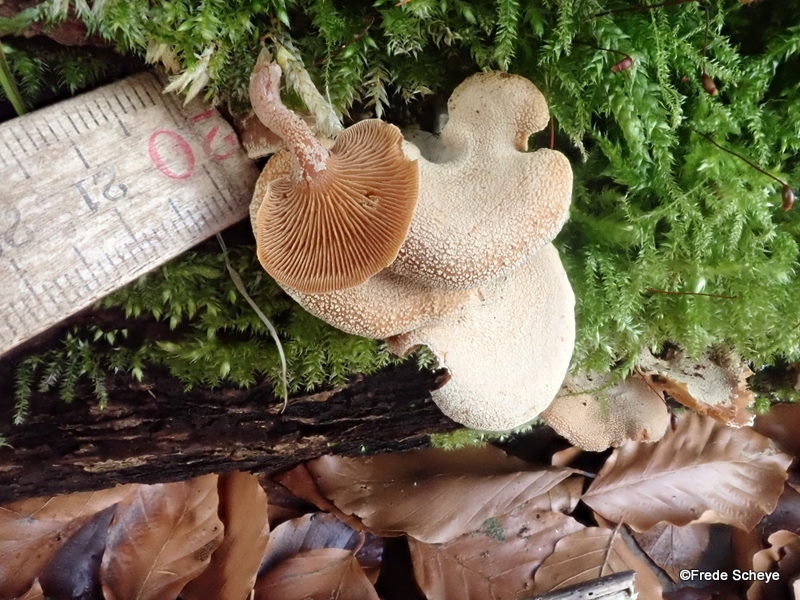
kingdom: Fungi
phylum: Basidiomycota
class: Agaricomycetes
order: Agaricales
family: Mycenaceae
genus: Panellus
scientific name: Panellus stipticus
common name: kliddet epaulethat
